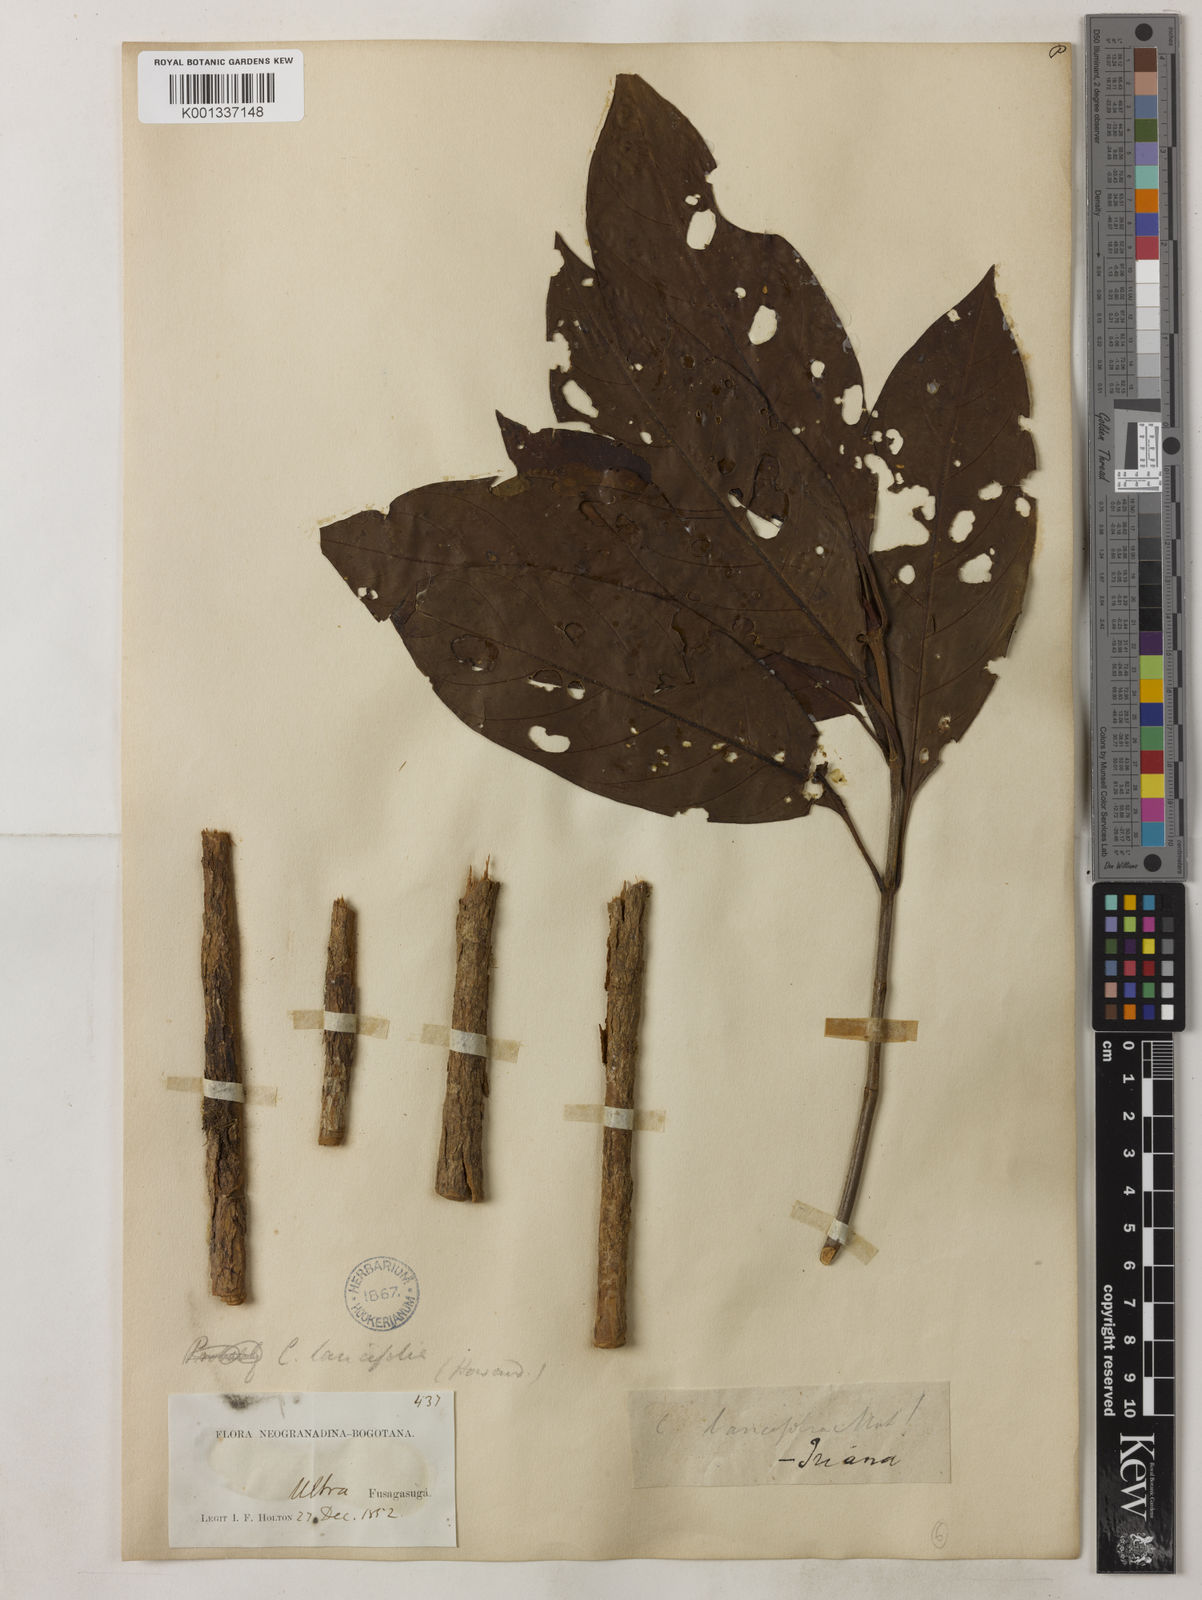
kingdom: Plantae
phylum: Tracheophyta
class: Magnoliopsida
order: Gentianales
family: Rubiaceae
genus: Cinchona
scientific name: Cinchona lancifolia
